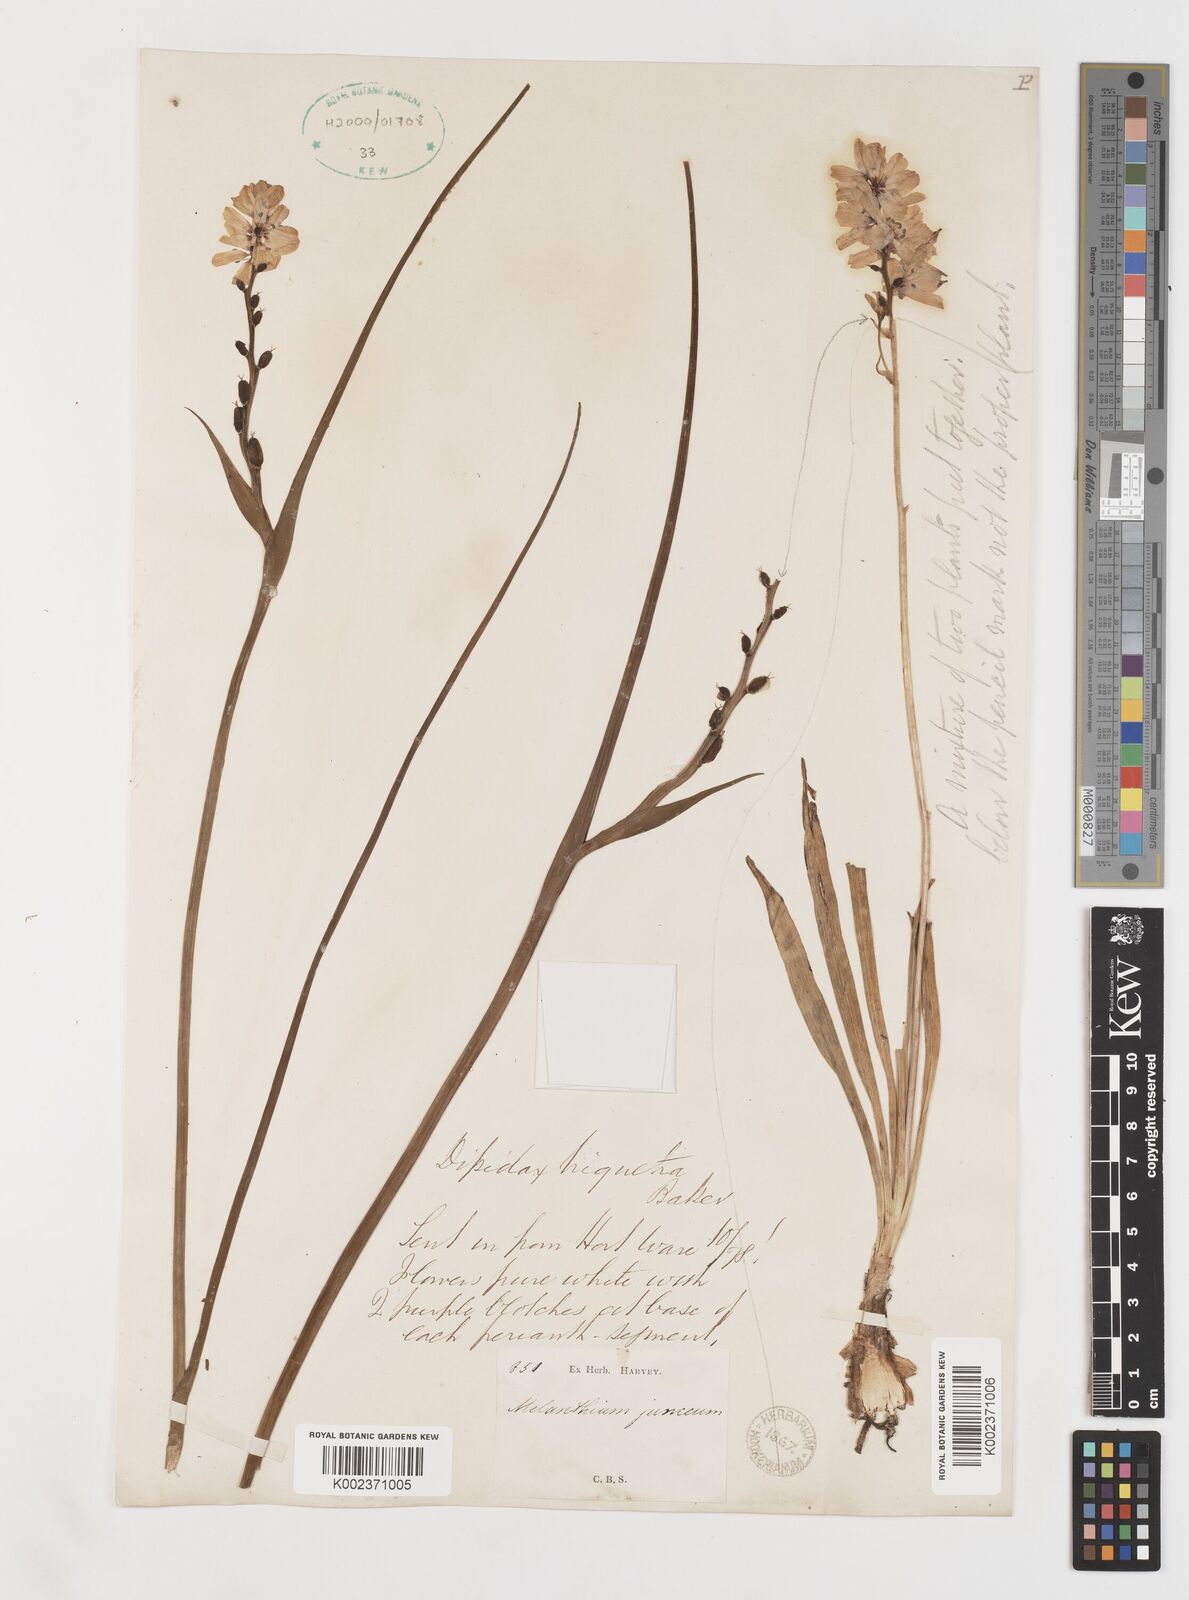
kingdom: Plantae
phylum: Tracheophyta
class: Liliopsida
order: Liliales
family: Colchicaceae
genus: Wurmbea
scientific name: Wurmbea stricta
